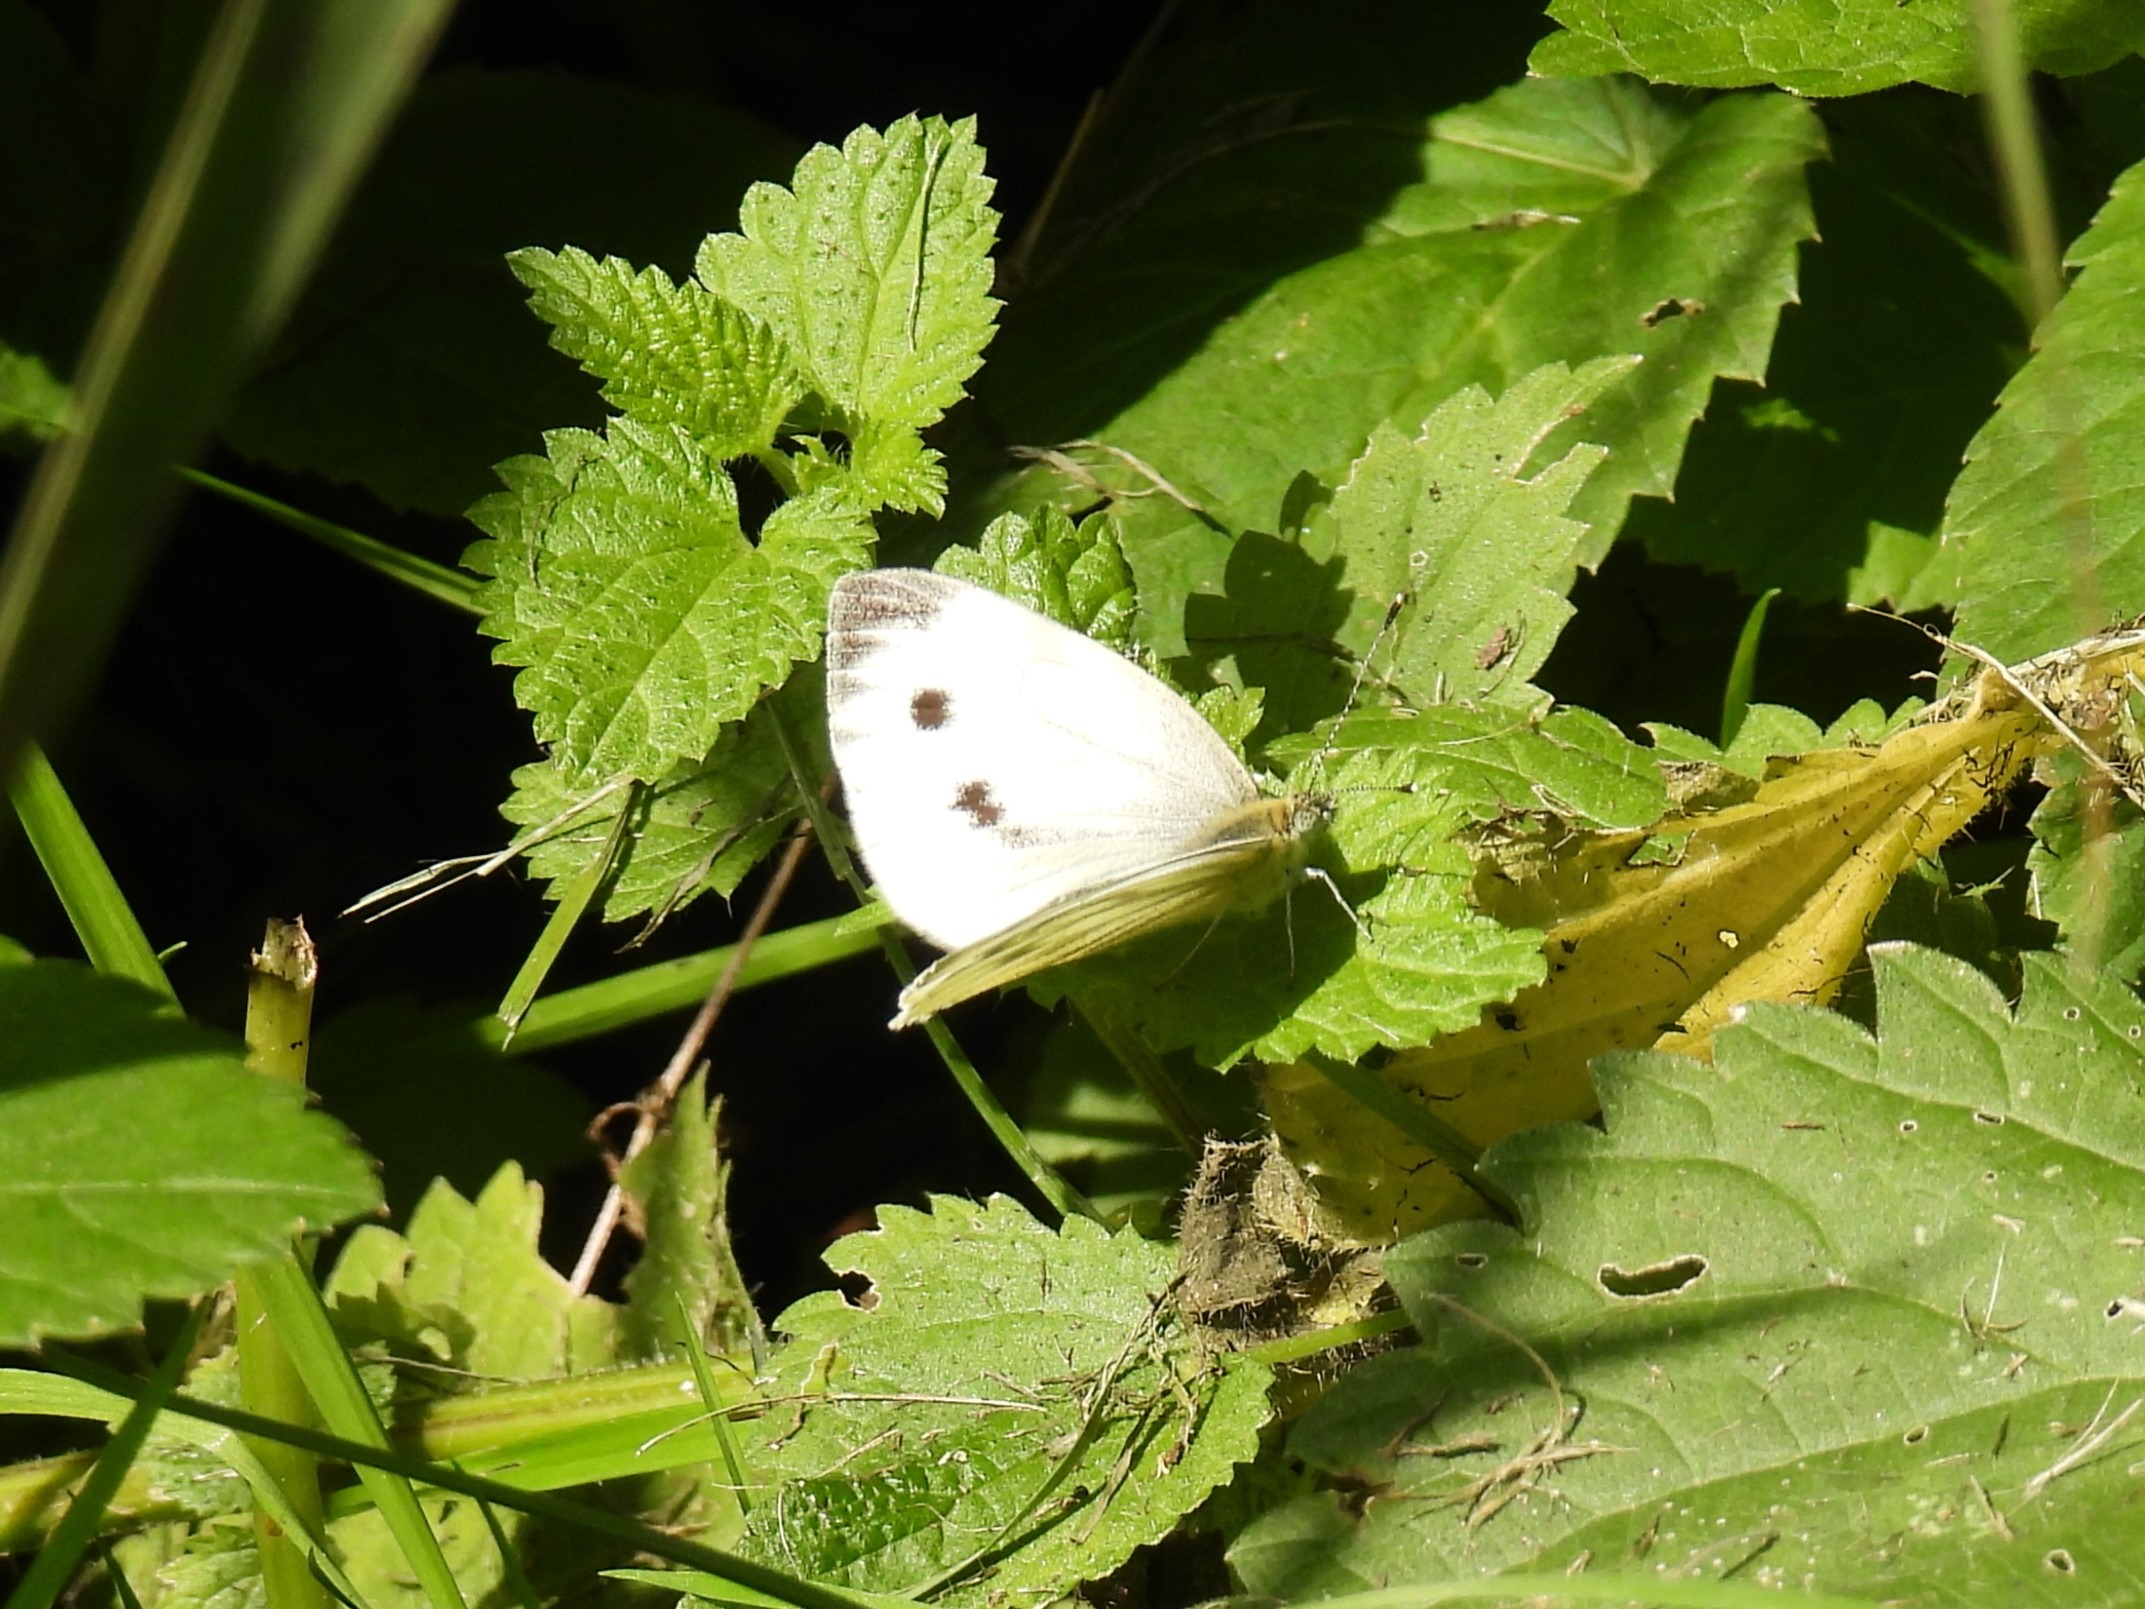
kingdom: Animalia
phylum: Arthropoda
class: Insecta
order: Lepidoptera
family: Pieridae
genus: Pieris
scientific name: Pieris napi
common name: Grønåret kålsommerfugl
